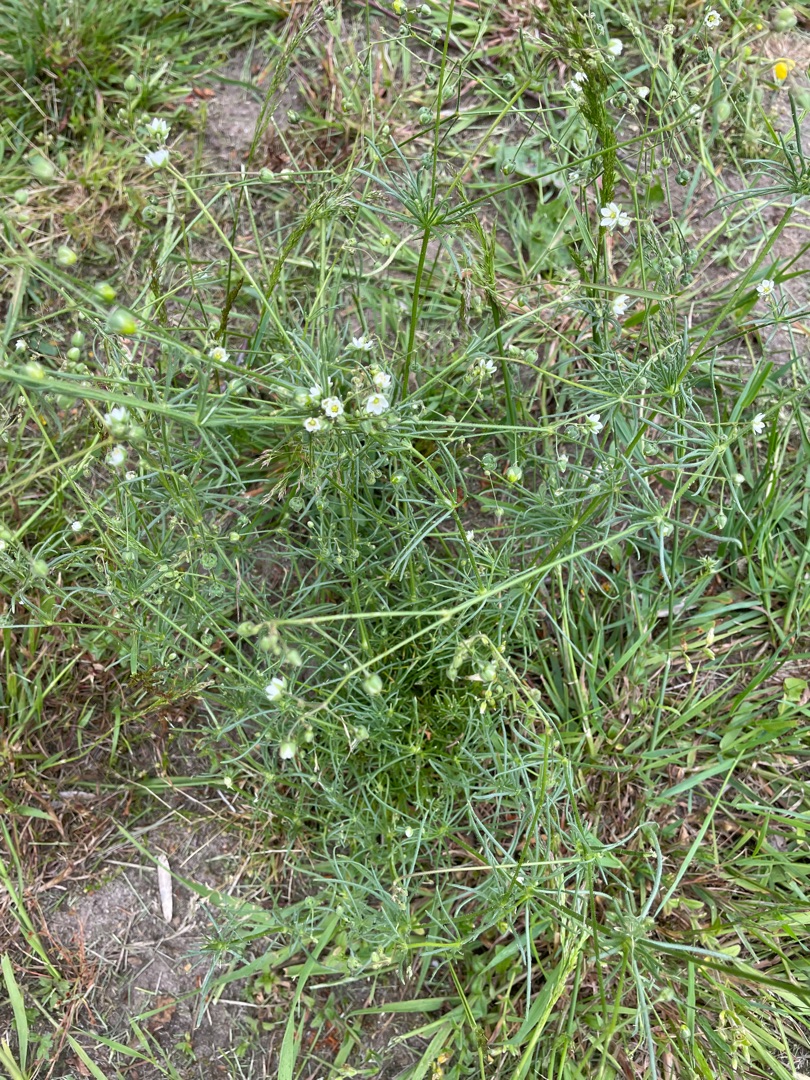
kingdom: Plantae
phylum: Tracheophyta
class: Magnoliopsida
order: Caryophyllales
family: Caryophyllaceae
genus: Spergula
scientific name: Spergula arvensis
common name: Almindelig spergel
